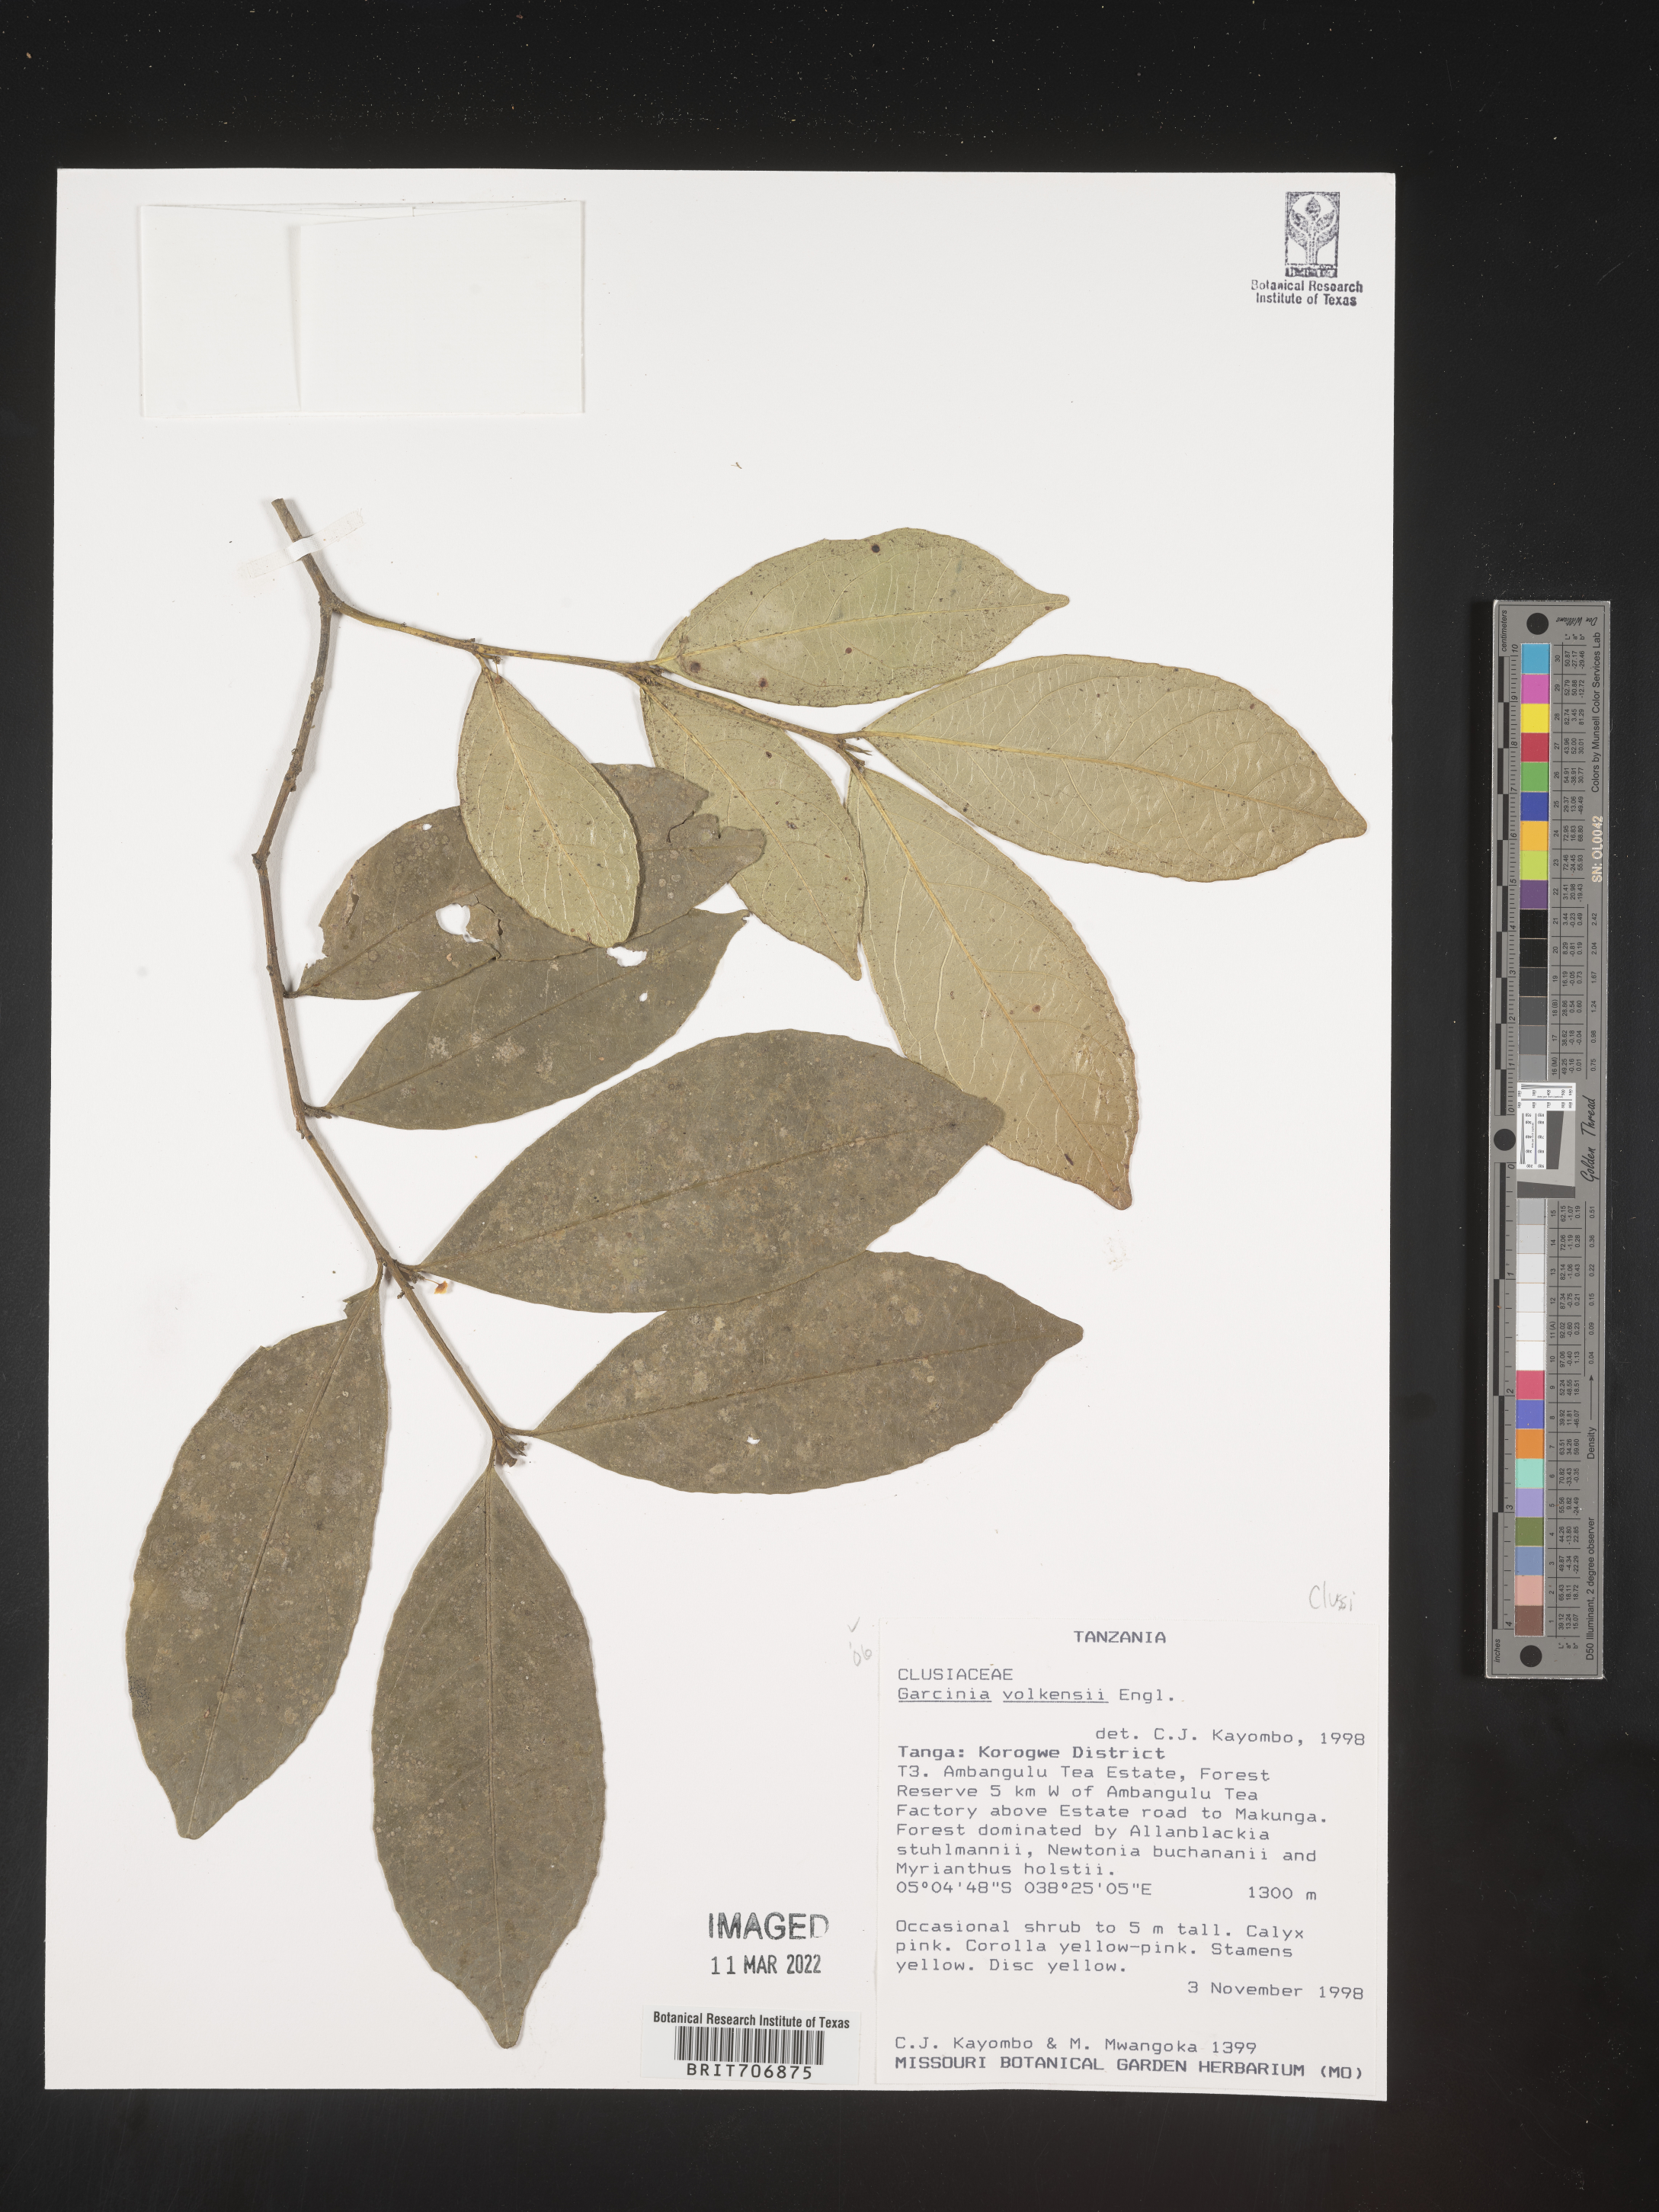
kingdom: Plantae
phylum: Tracheophyta
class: Magnoliopsida
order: Malpighiales
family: Clusiaceae
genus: Garcinia
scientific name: Garcinia
